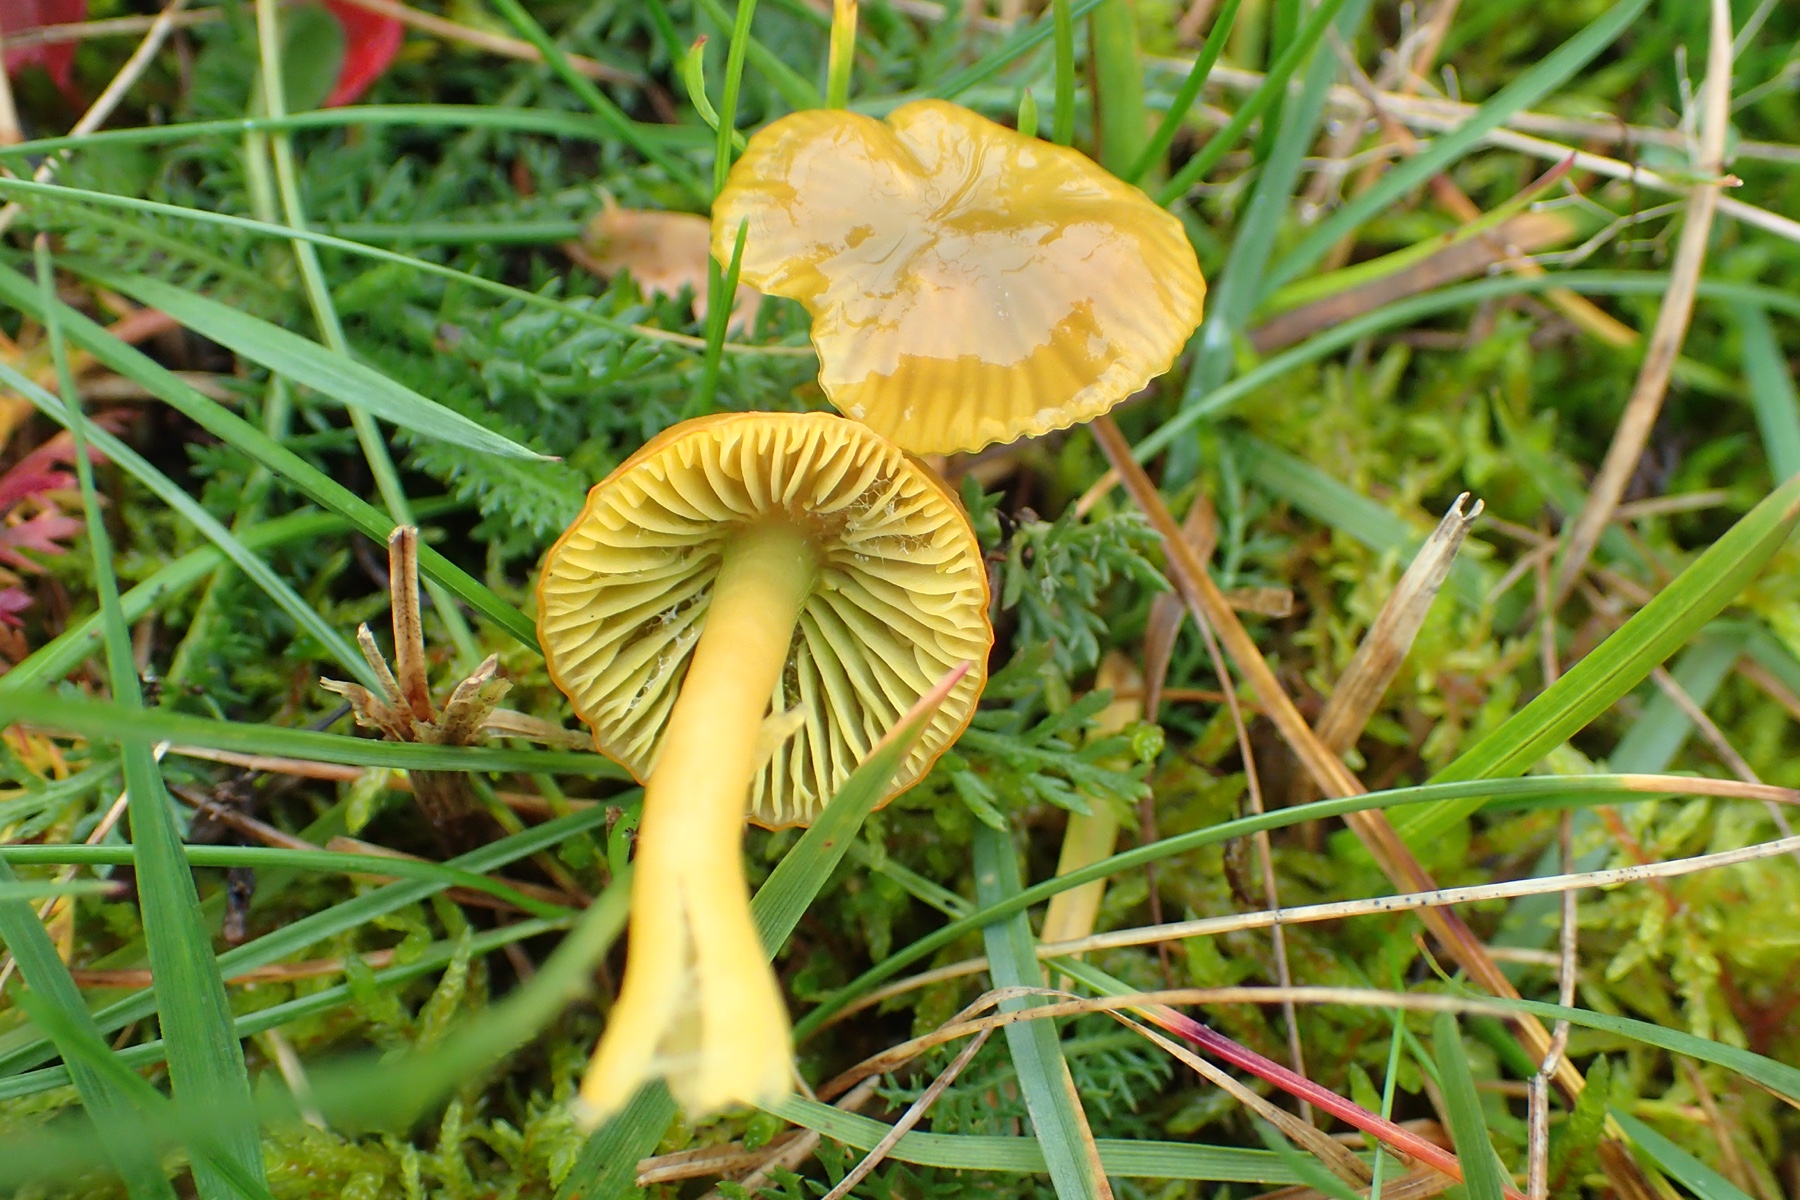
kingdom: Fungi
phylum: Basidiomycota
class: Agaricomycetes
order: Agaricales
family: Hygrophoraceae
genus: Gliophorus
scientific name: Gliophorus psittacinus
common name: papegøje-vokshat
